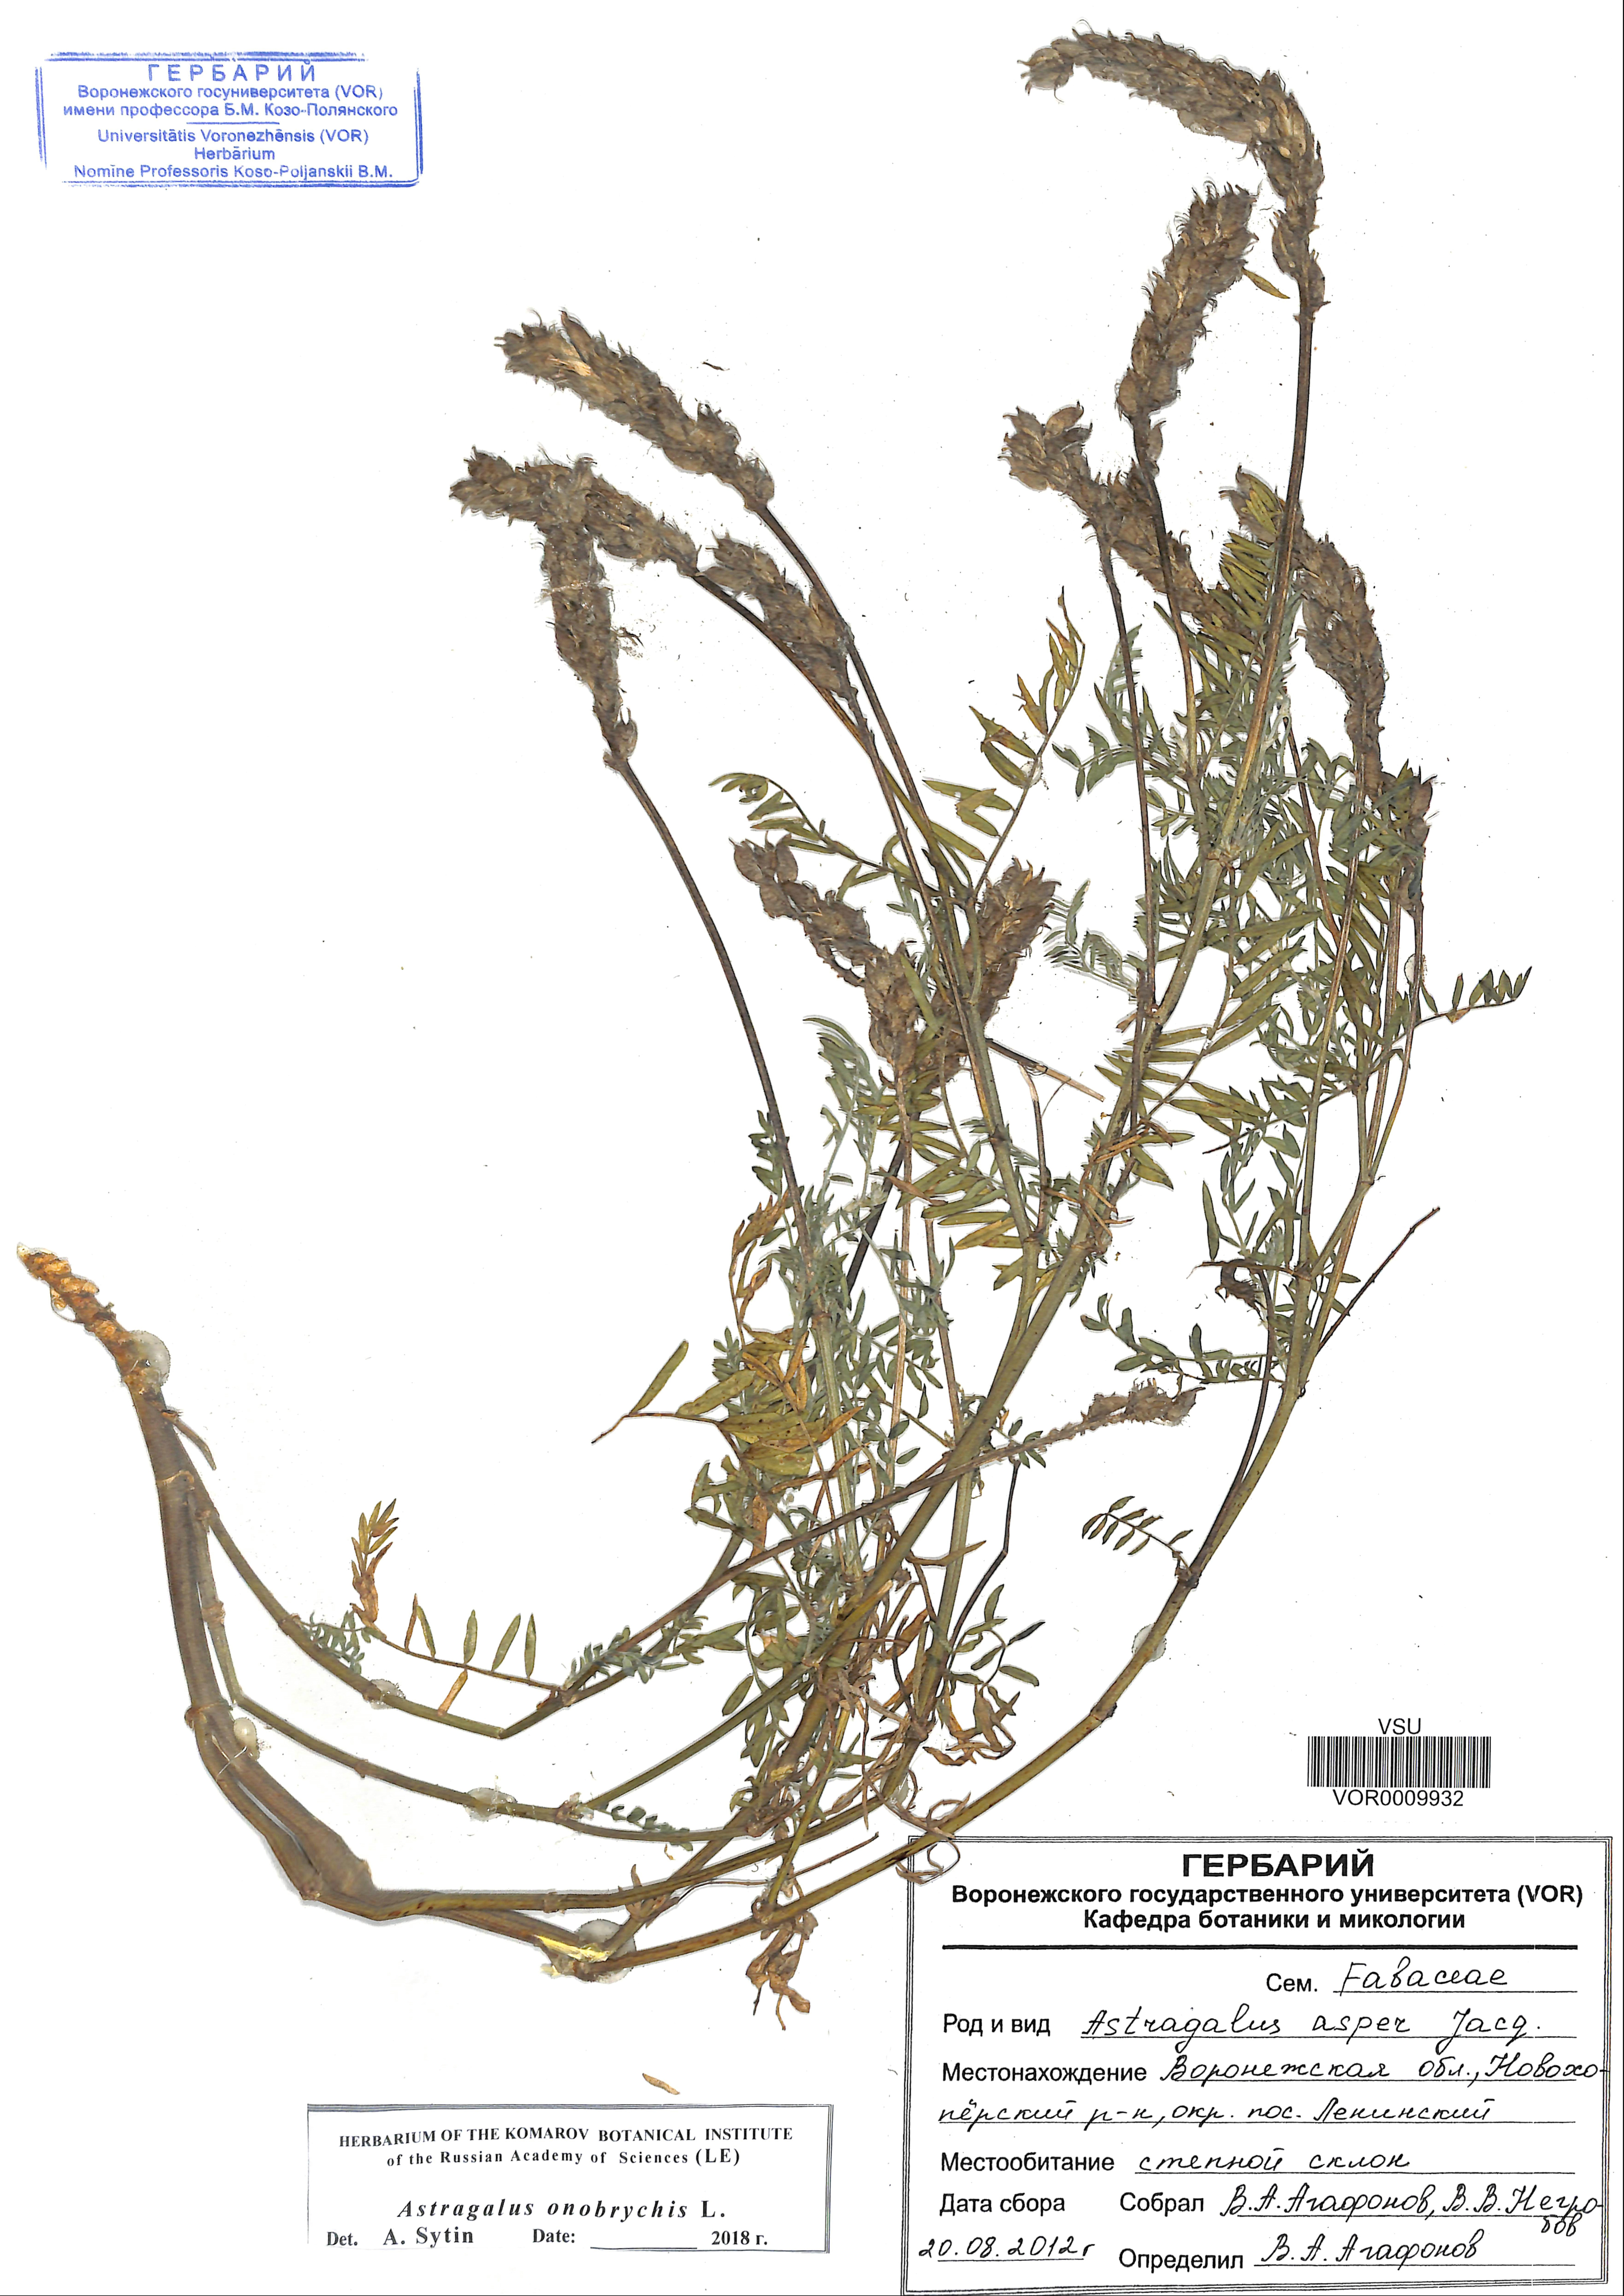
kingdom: Plantae
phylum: Tracheophyta
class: Magnoliopsida
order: Fabales
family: Fabaceae
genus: Astragalus
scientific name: Astragalus onobrychis
